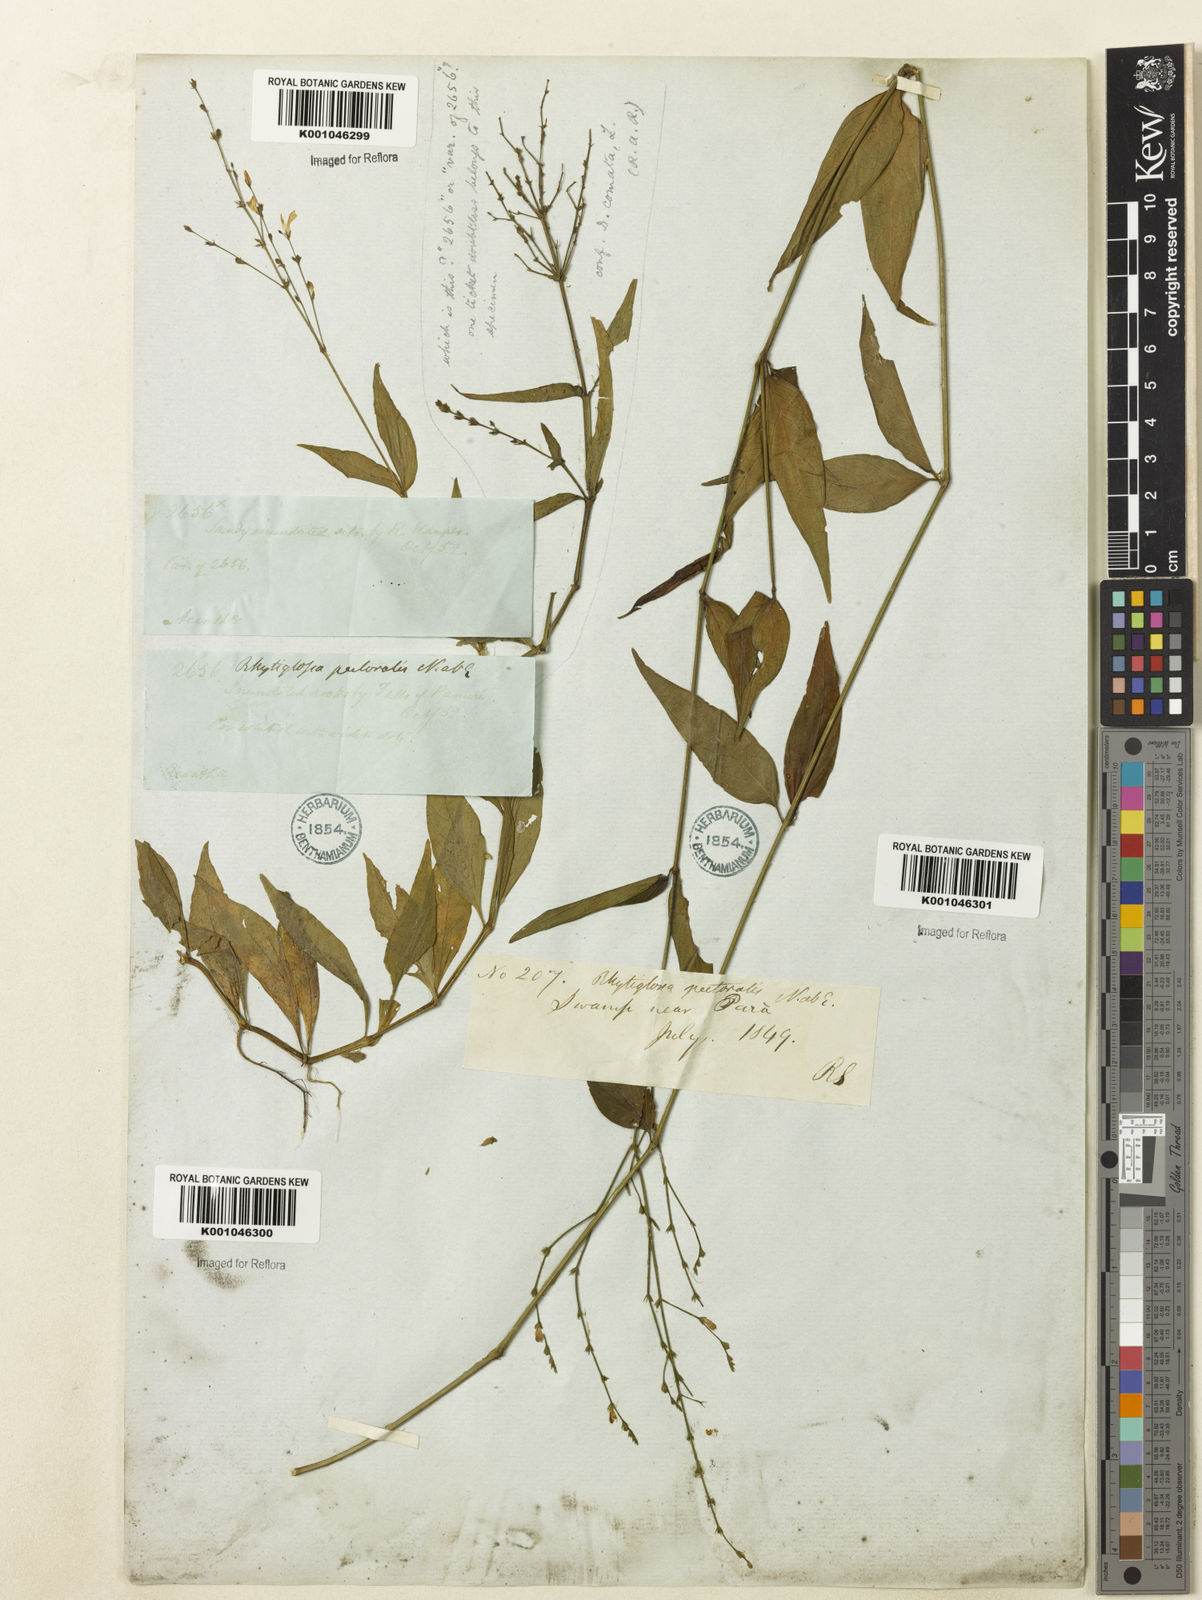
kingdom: Plantae
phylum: Tracheophyta
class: Magnoliopsida
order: Lamiales
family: Acanthaceae
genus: Dianthera
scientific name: Dianthera pectoralis
